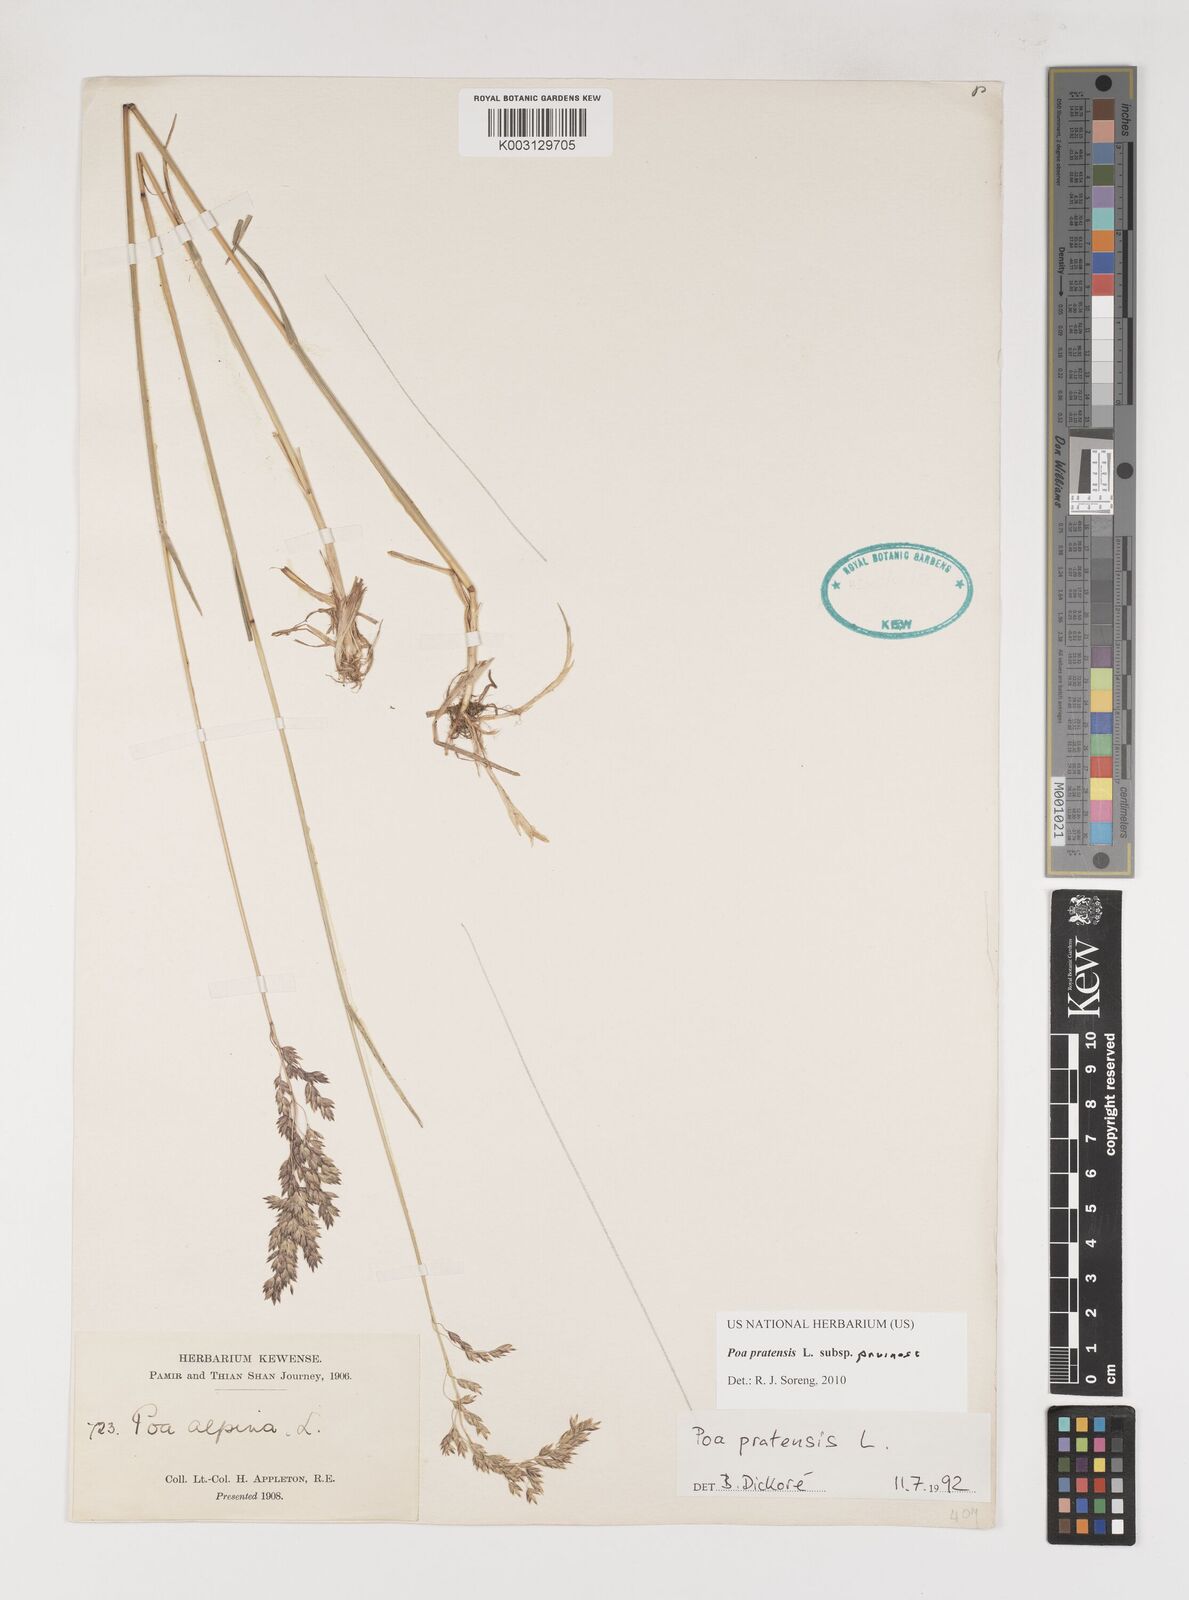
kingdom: Plantae
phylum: Tracheophyta
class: Liliopsida
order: Poales
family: Poaceae
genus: Poa
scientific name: Poa tianschanica
